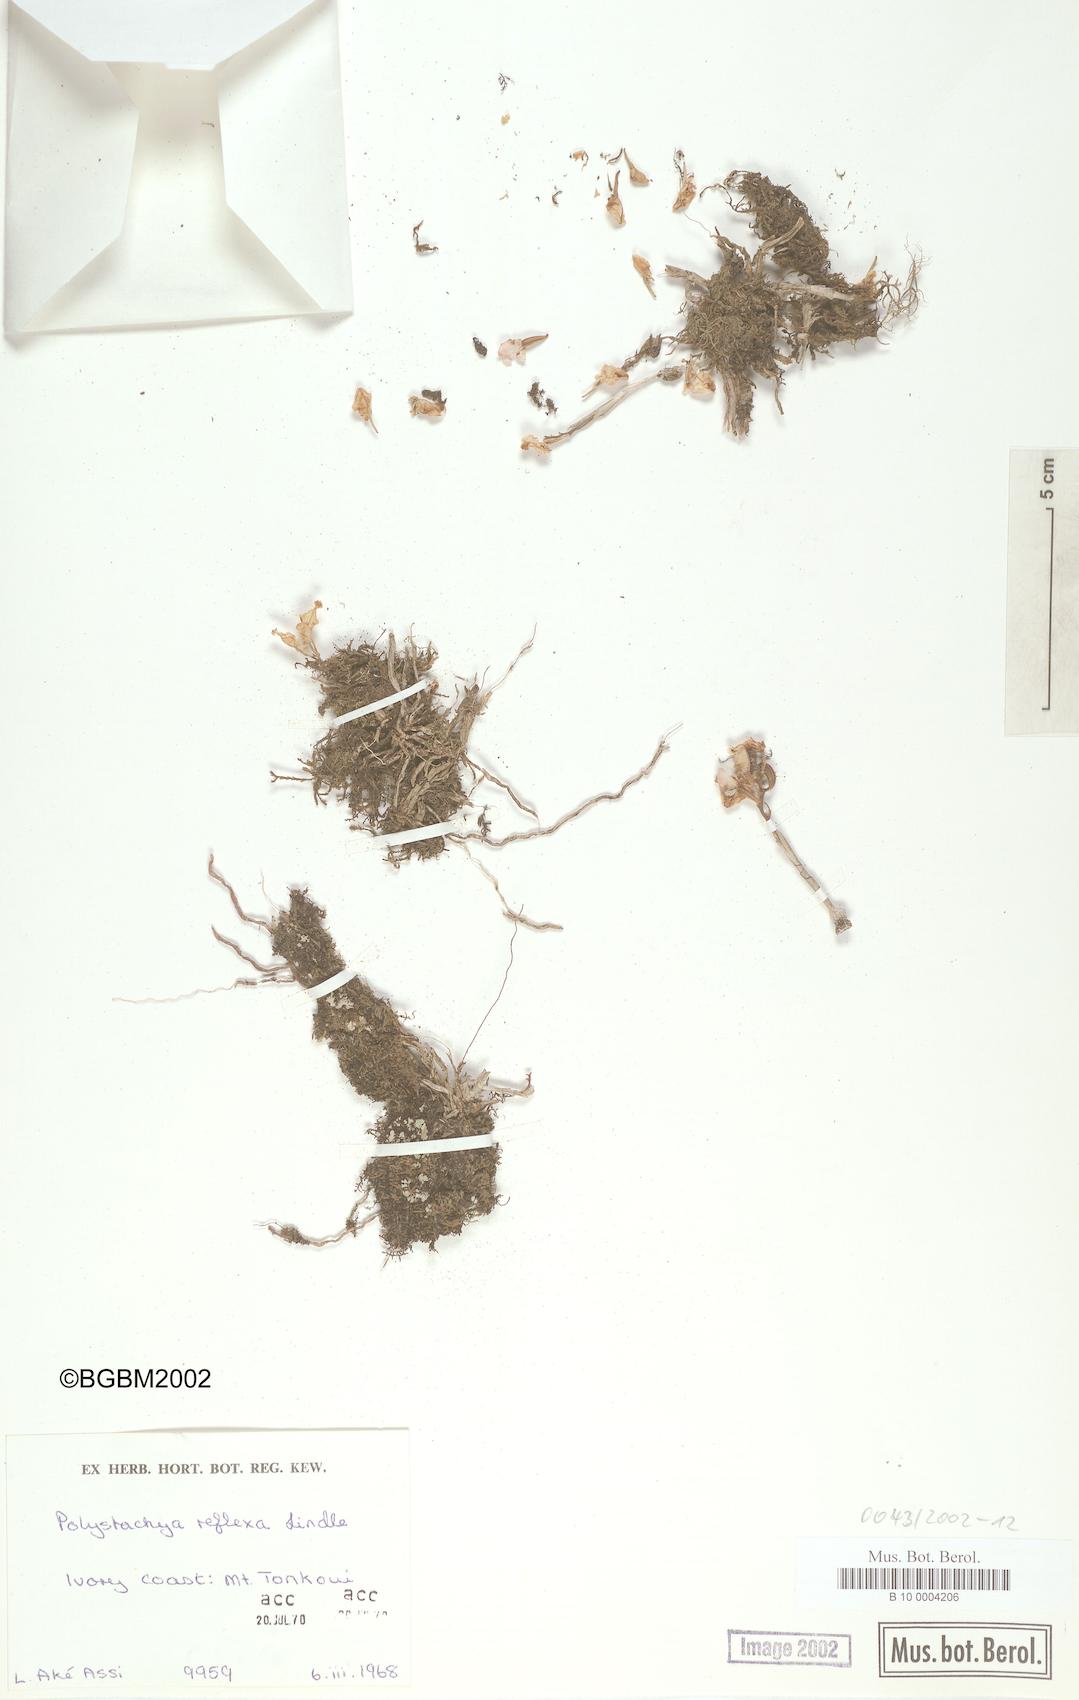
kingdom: Plantae
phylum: Tracheophyta
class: Liliopsida
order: Asparagales
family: Orchidaceae
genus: Polystachya
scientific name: Polystachya reflexa
